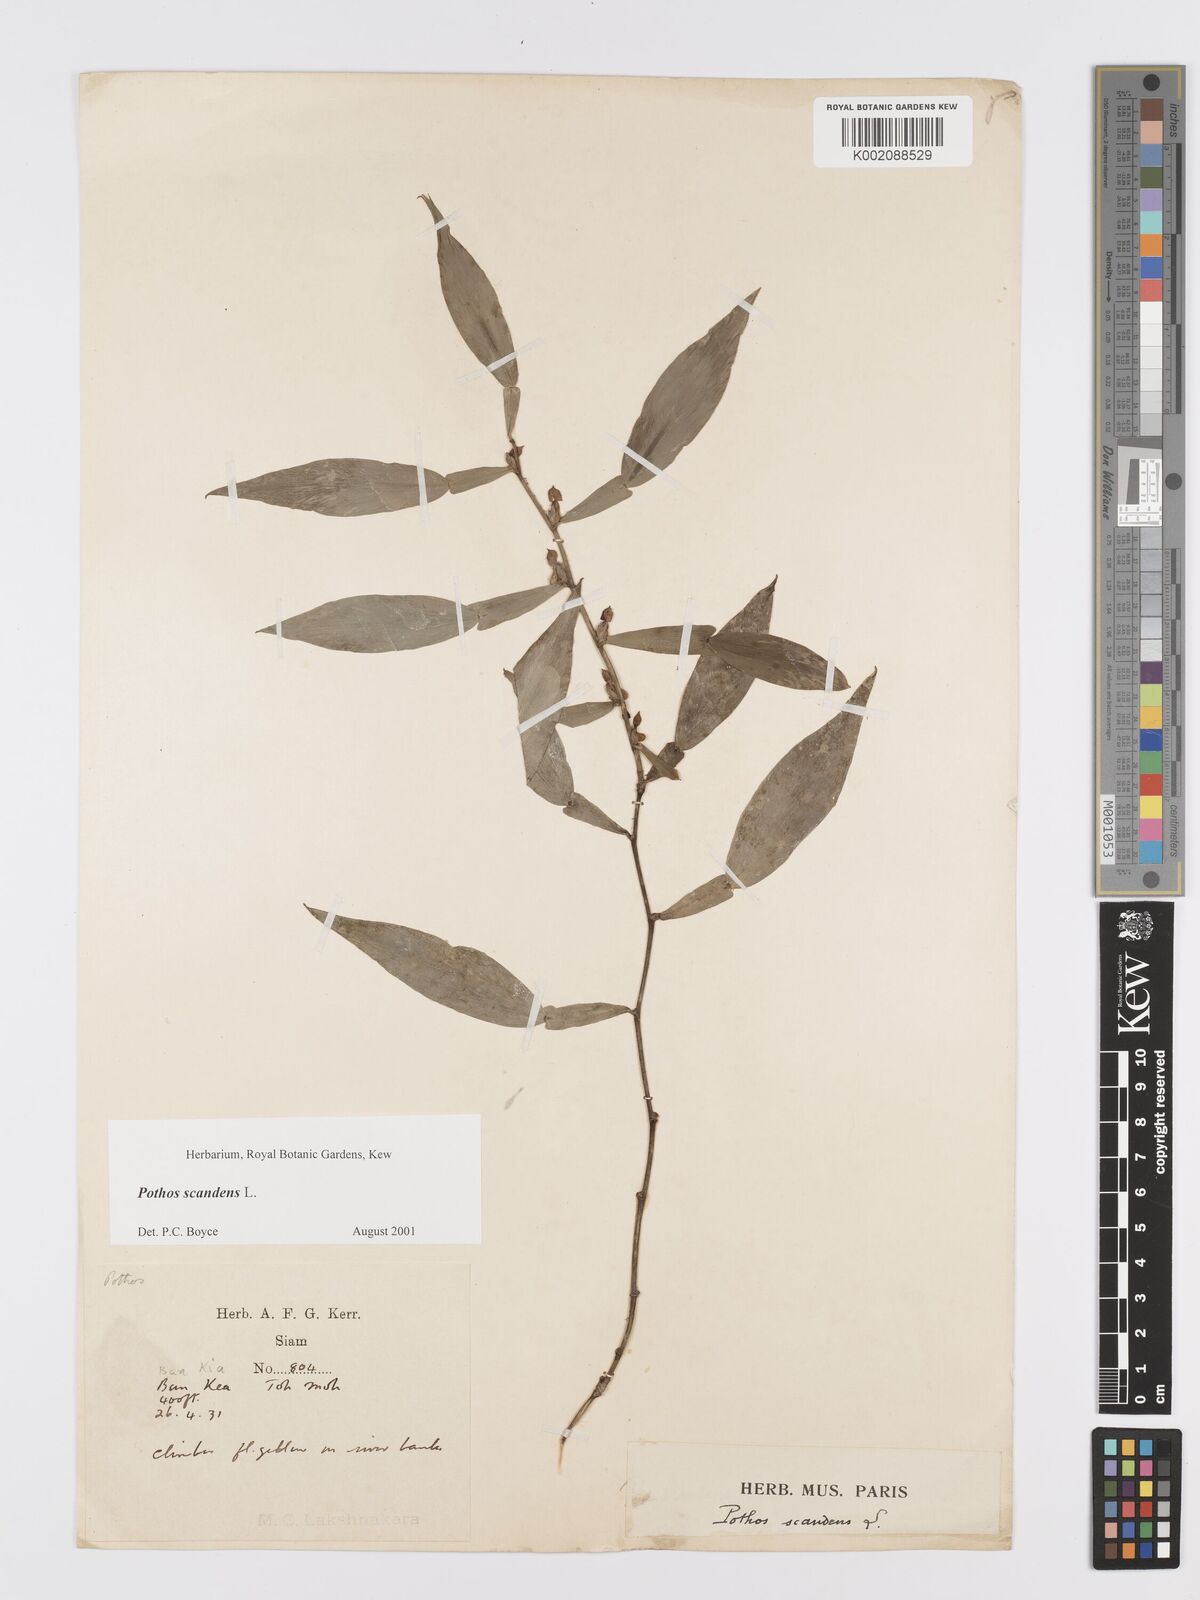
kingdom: Plantae
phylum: Tracheophyta
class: Liliopsida
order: Alismatales
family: Araceae
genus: Pothos
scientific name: Pothos scandens
